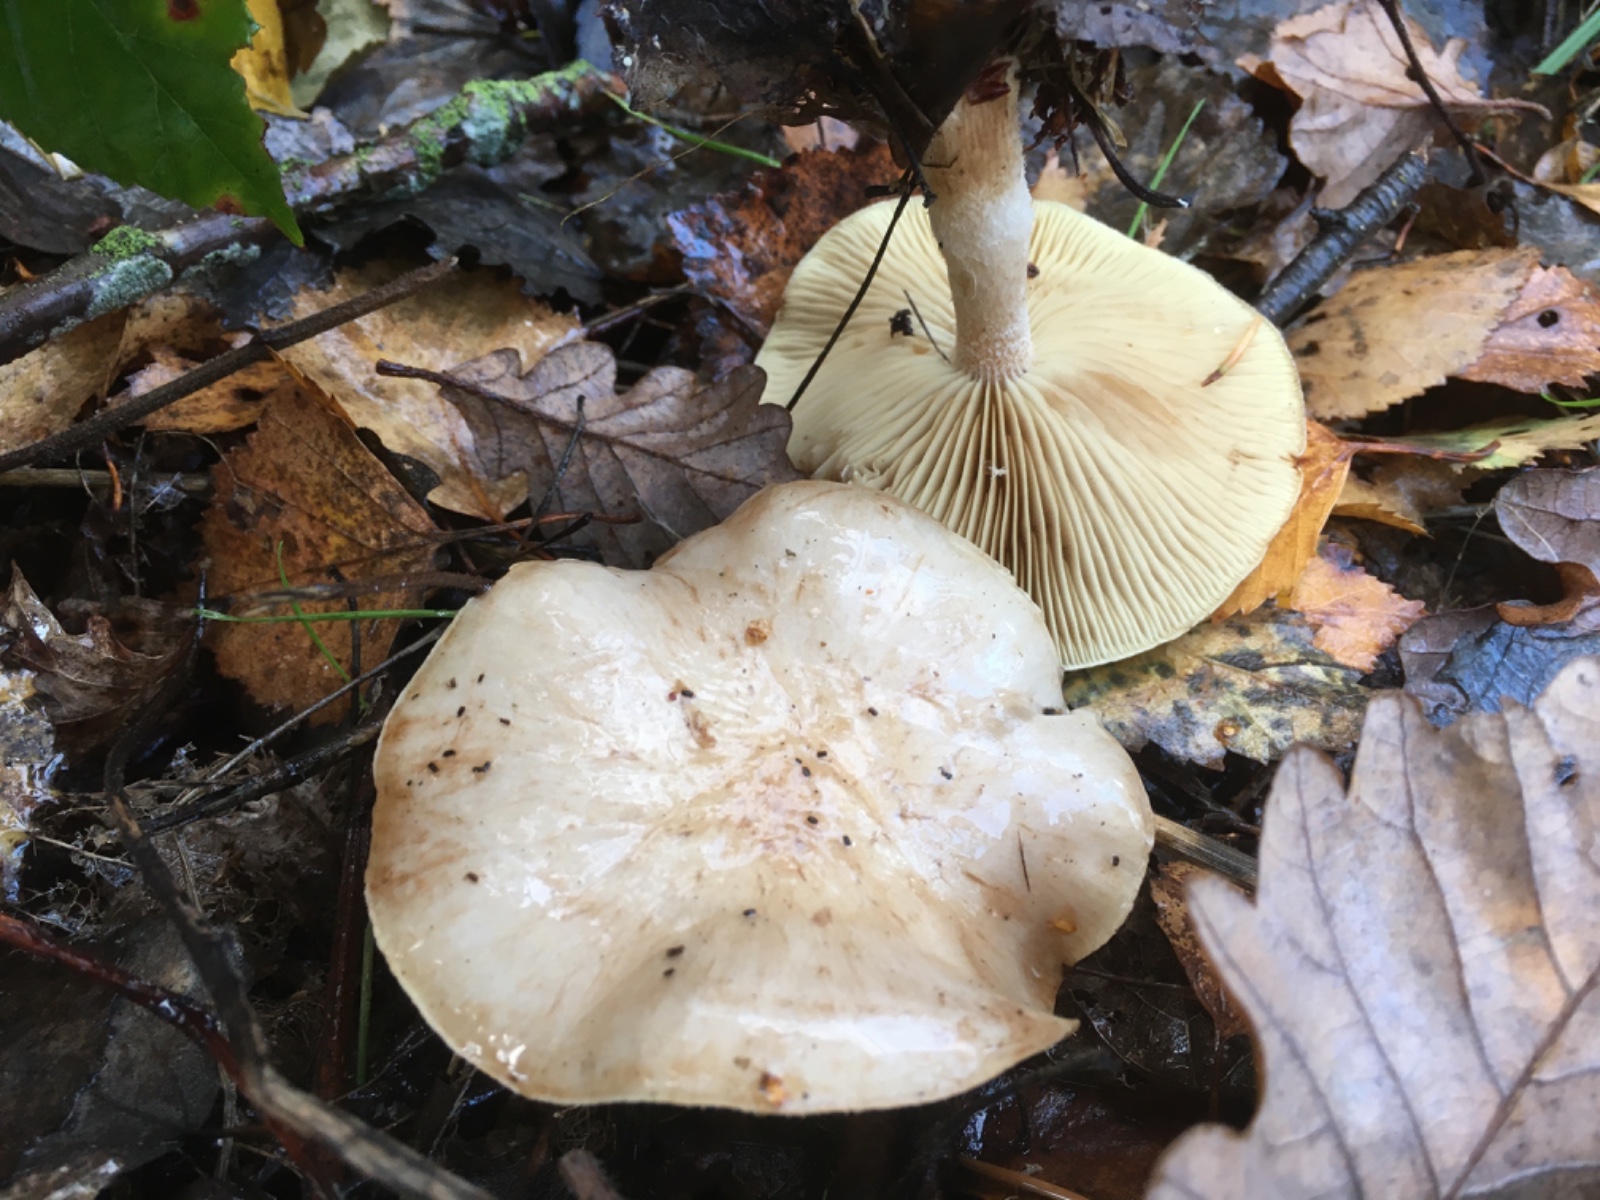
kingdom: Fungi
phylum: Basidiomycota
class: Agaricomycetes
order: Agaricales
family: Strophariaceae
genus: Pholiota
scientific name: Pholiota lenta
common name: løv-skælhat
